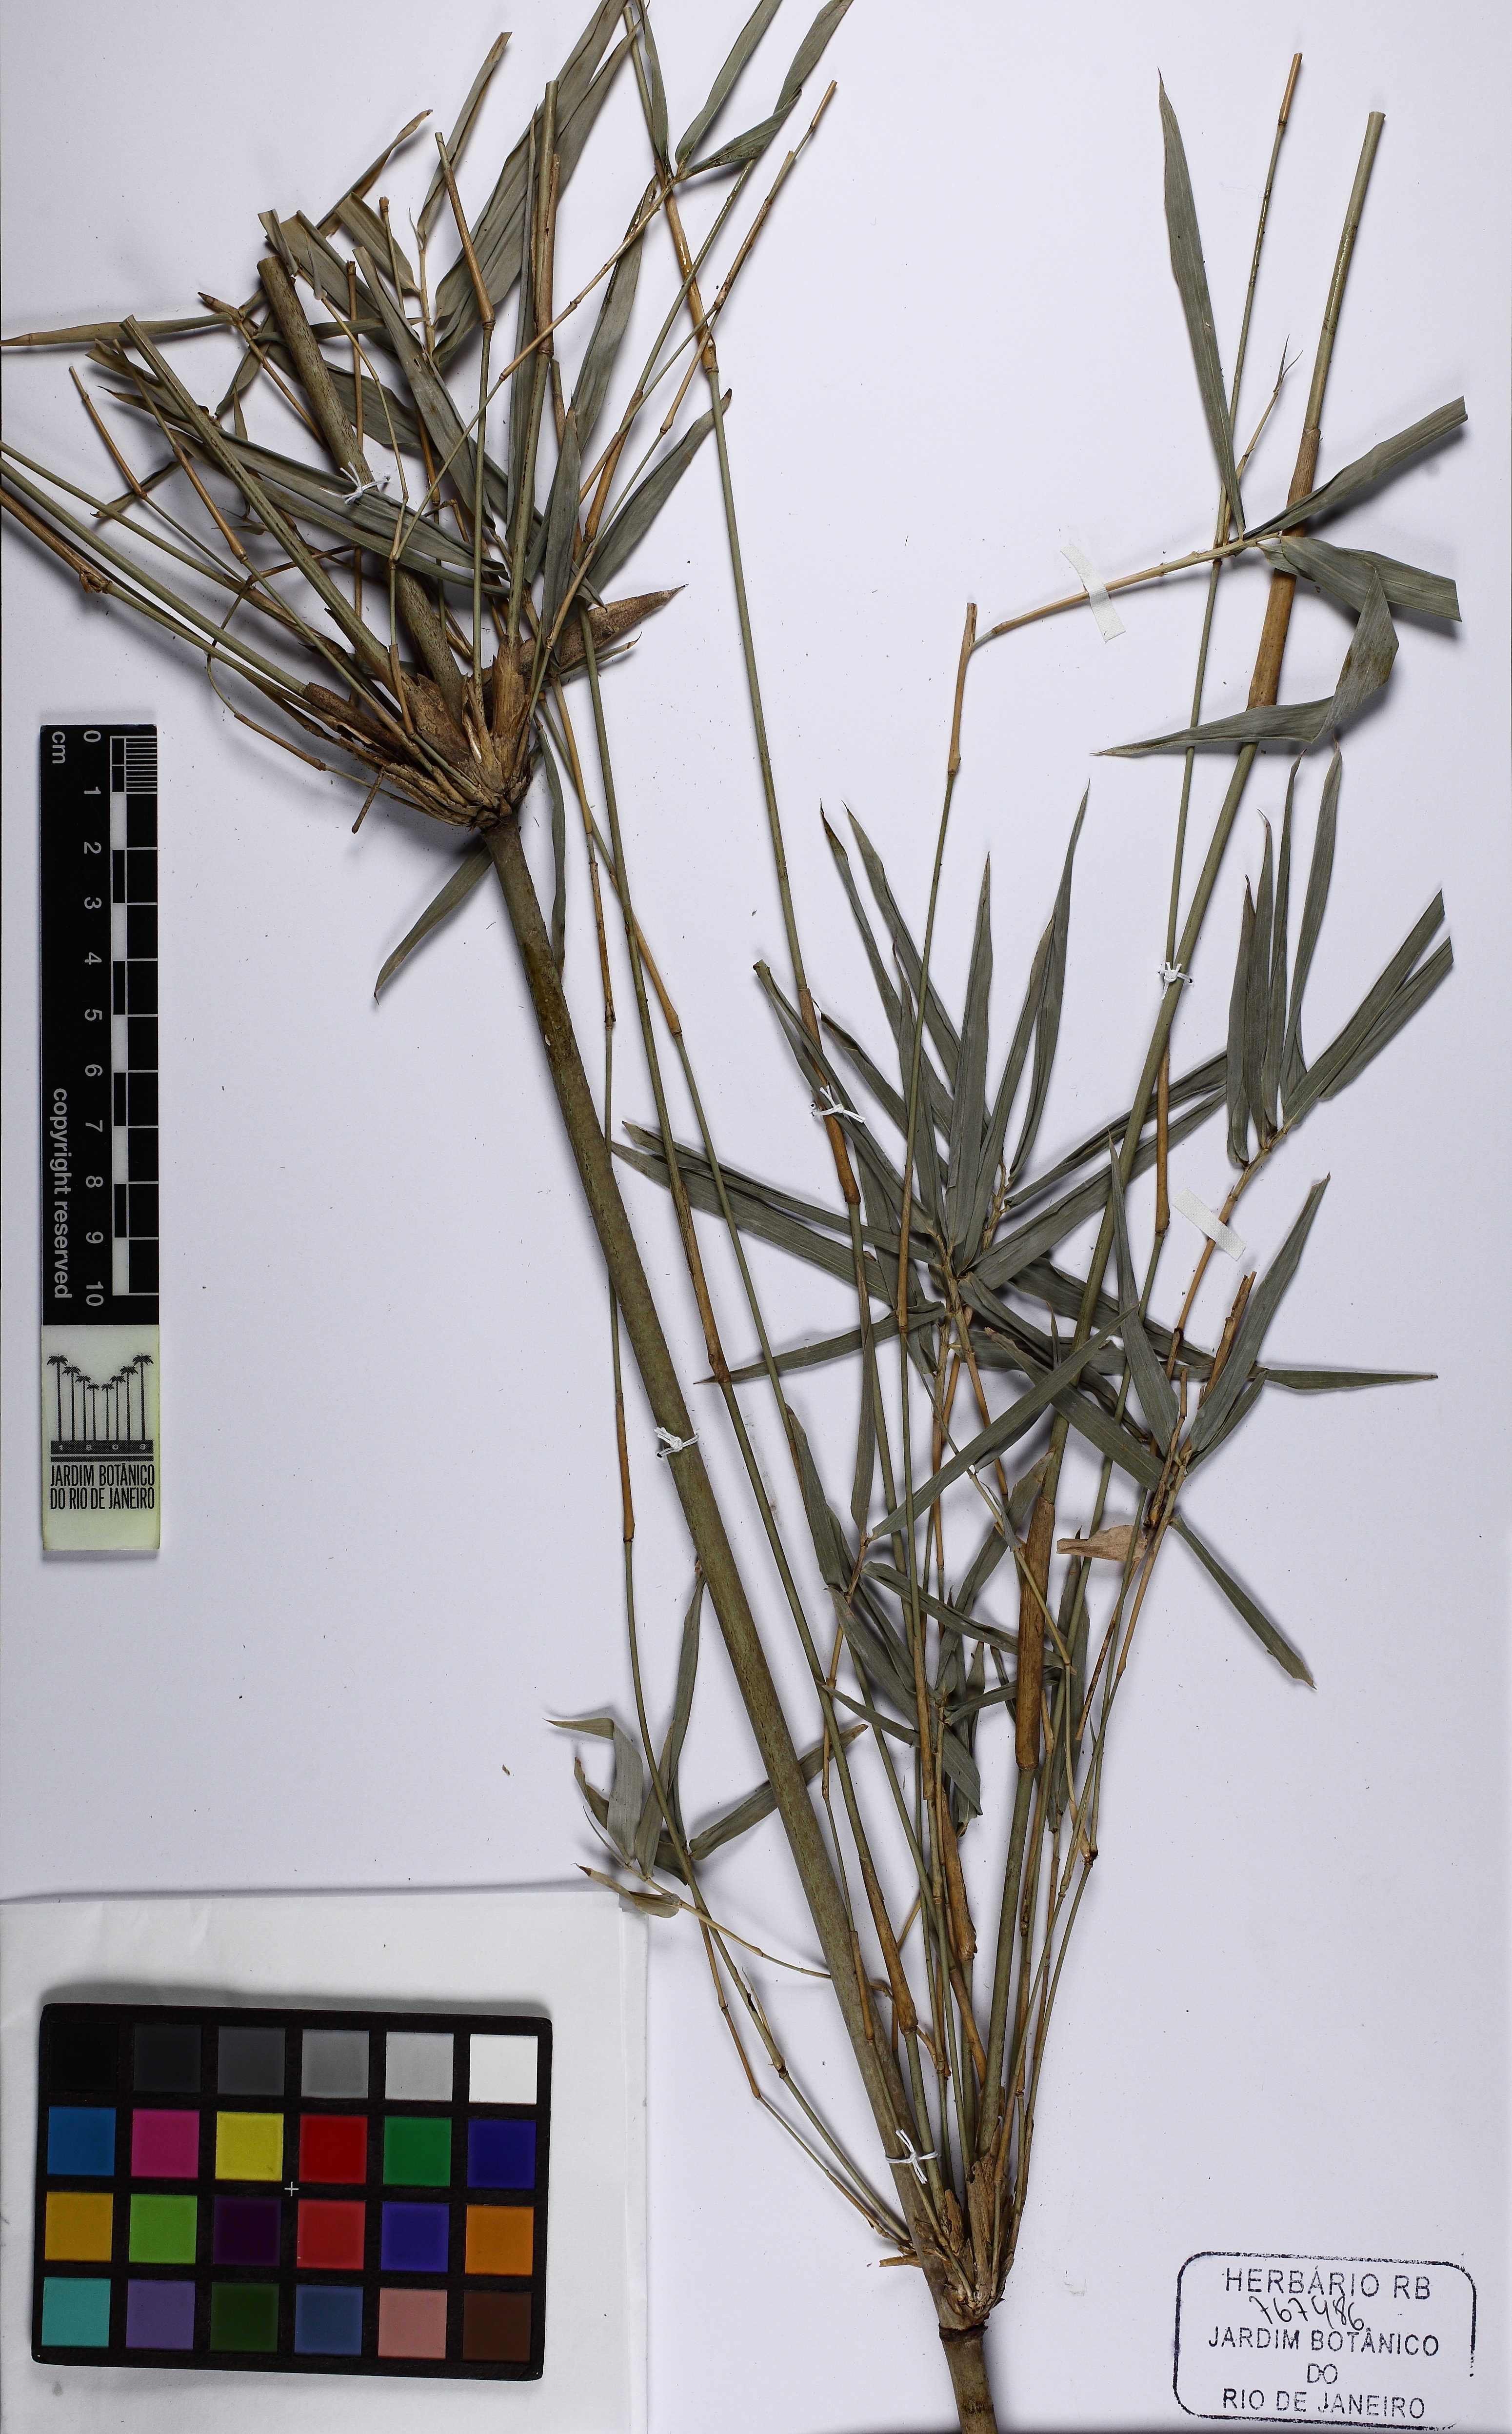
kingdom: Plantae
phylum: Tracheophyta
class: Liliopsida
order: Poales
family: Poaceae
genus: Bambusa
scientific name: Bambusa tuldoides
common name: Verdant bamboo
